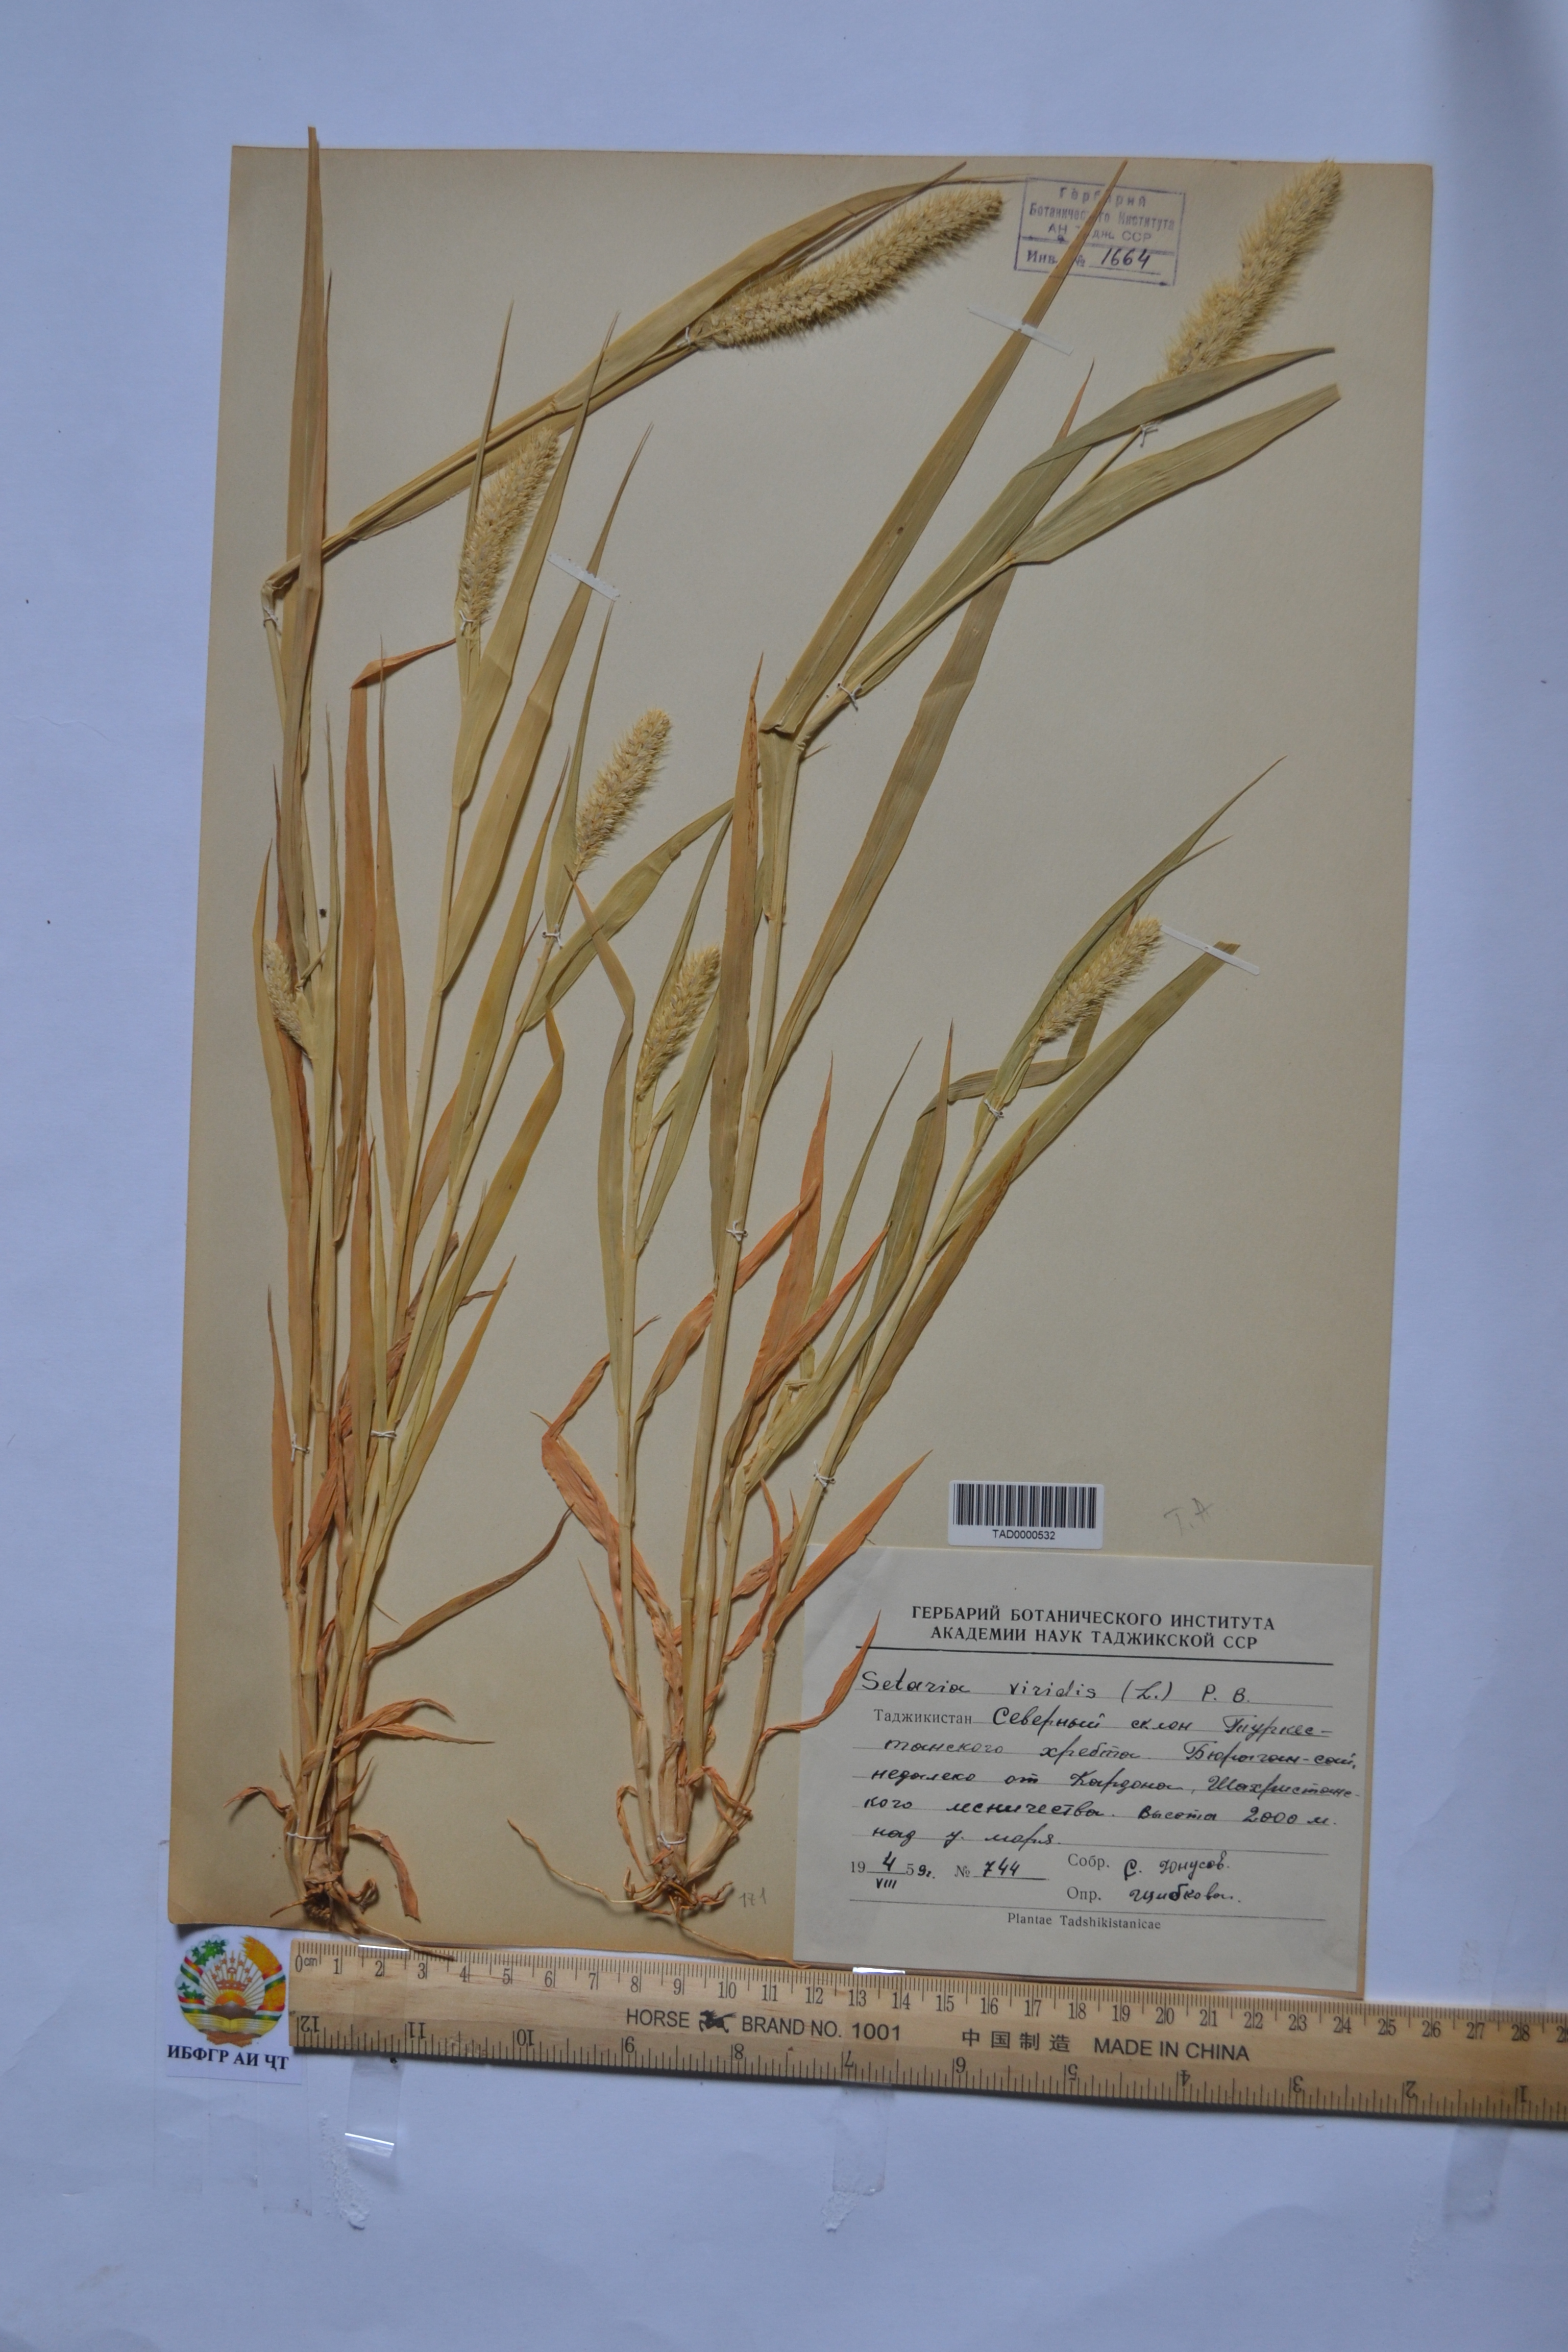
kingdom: Plantae
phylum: Tracheophyta
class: Liliopsida
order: Poales
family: Poaceae
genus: Setaria
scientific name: Setaria viridis
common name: Green bristlegrass
